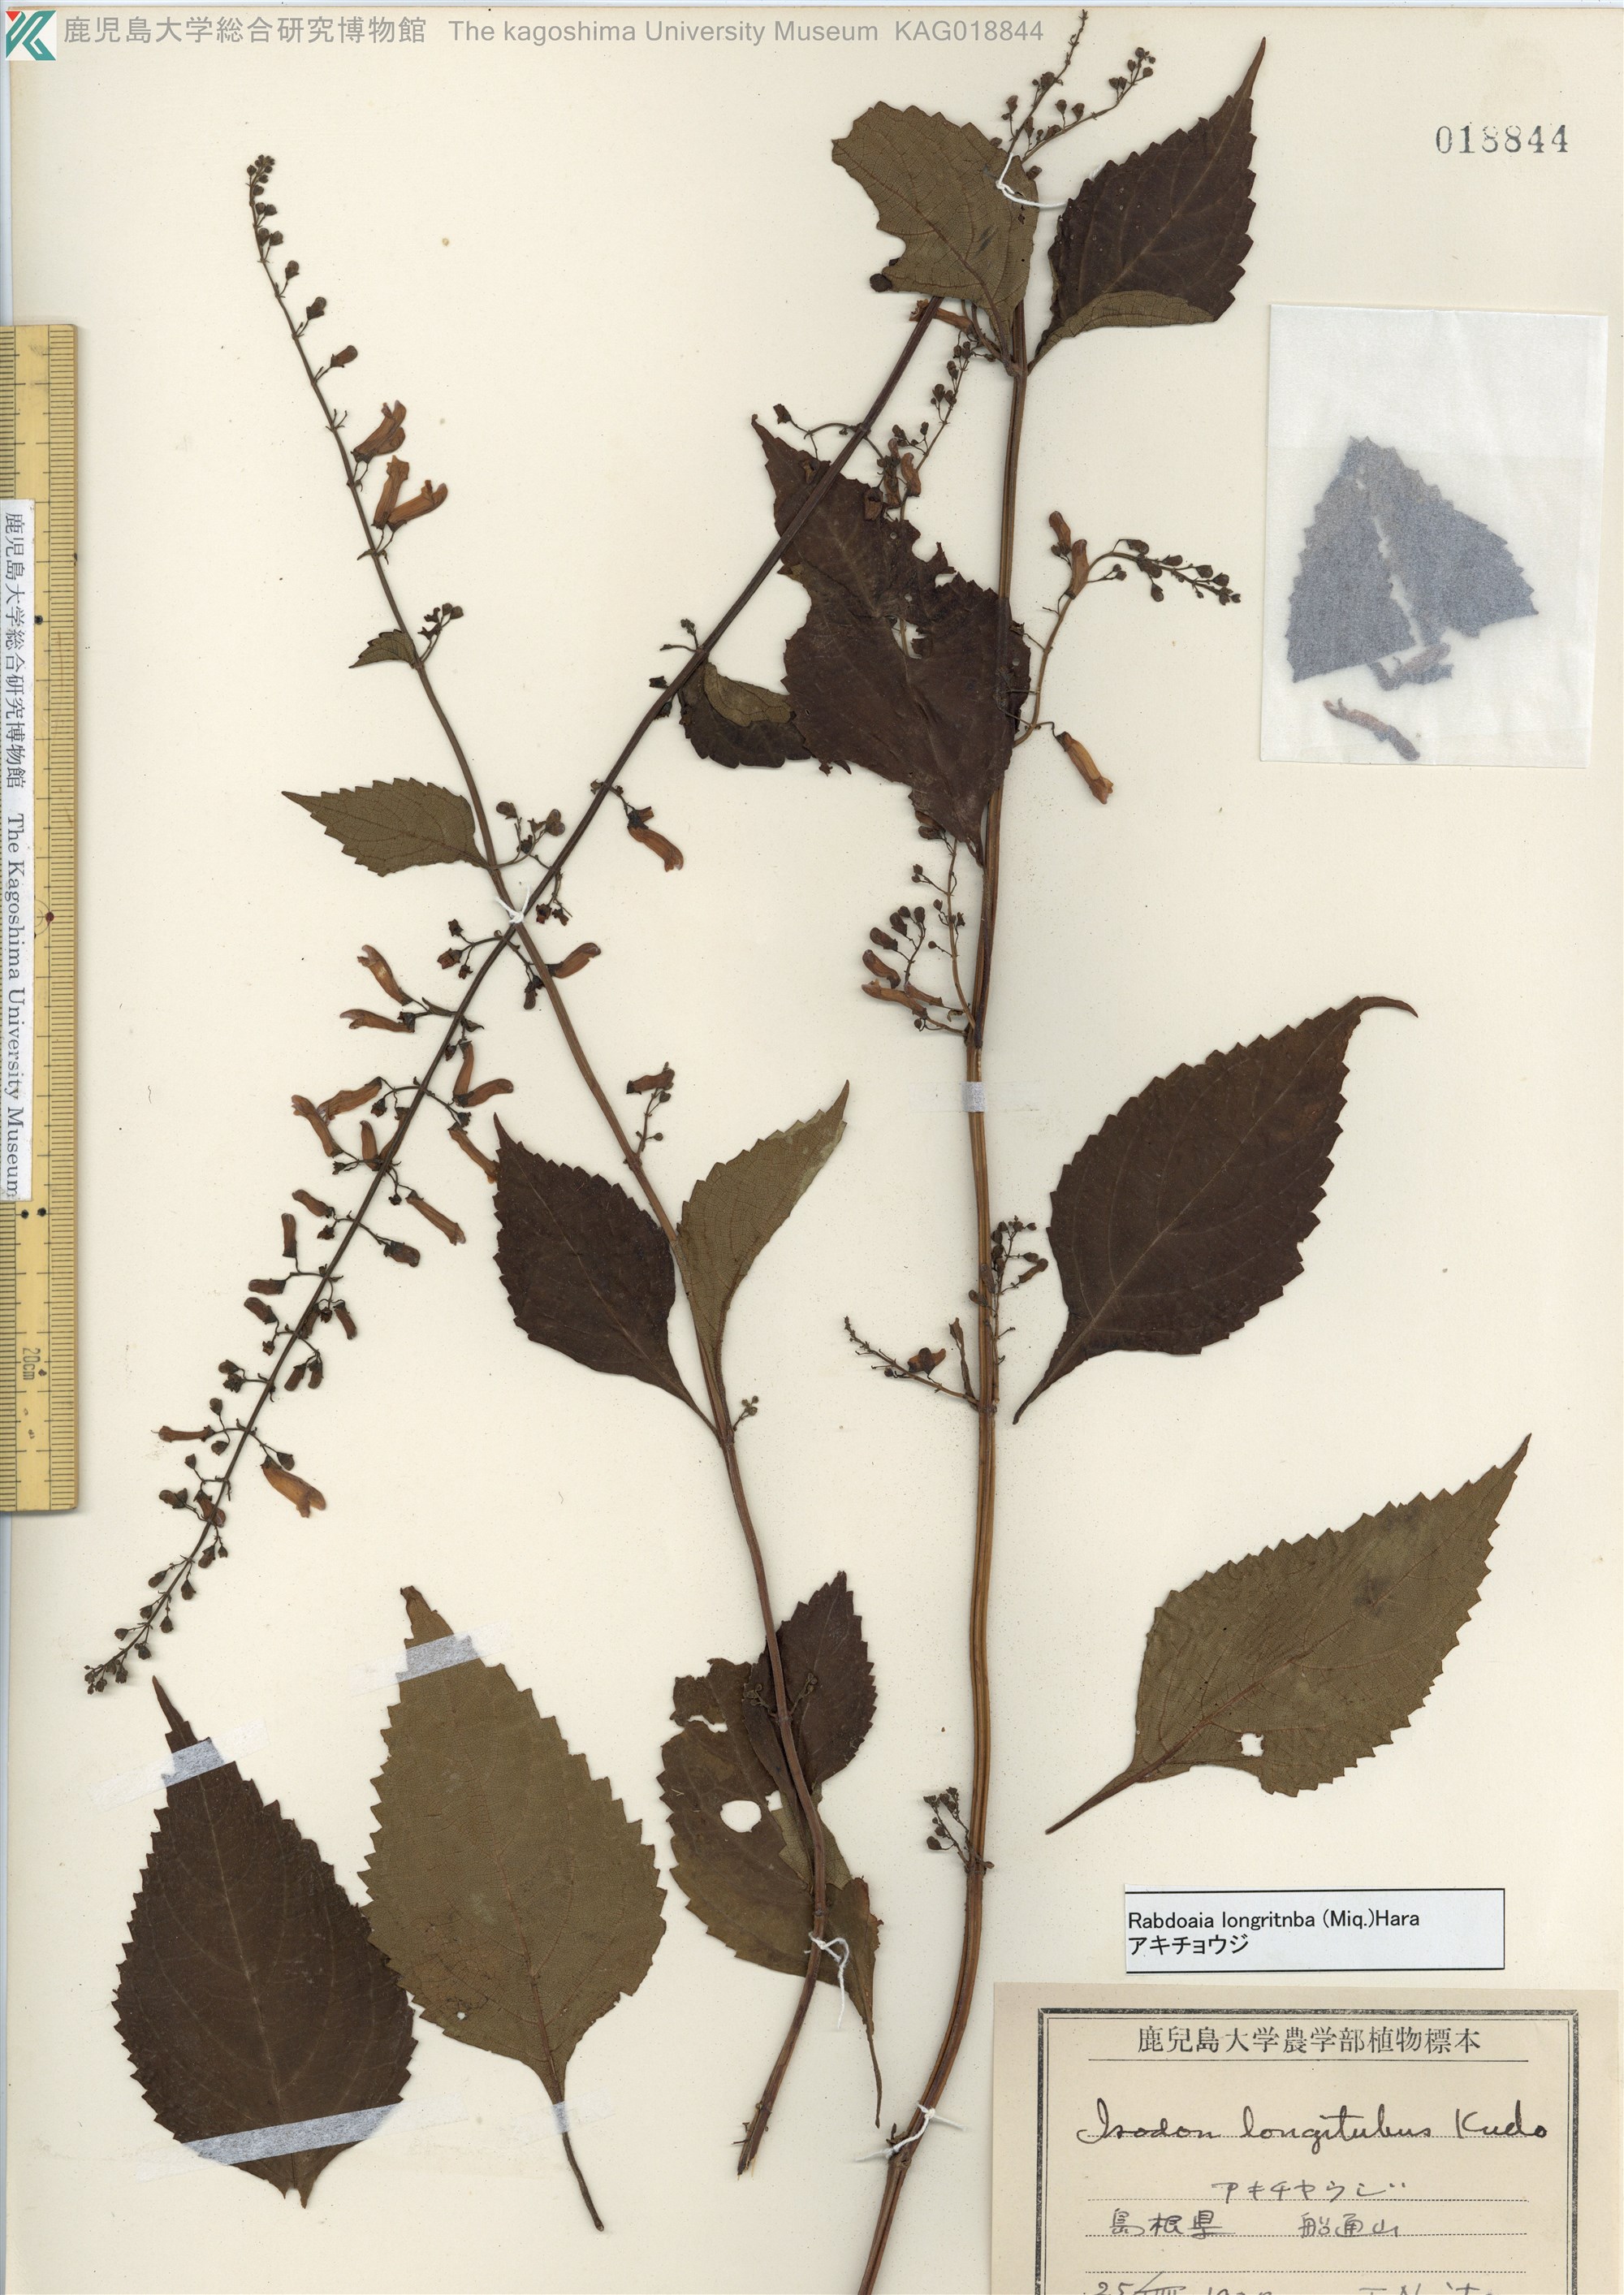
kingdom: Plantae
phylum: Tracheophyta
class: Magnoliopsida
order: Lamiales
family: Lamiaceae
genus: Isodon
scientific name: Isodon longitubus
